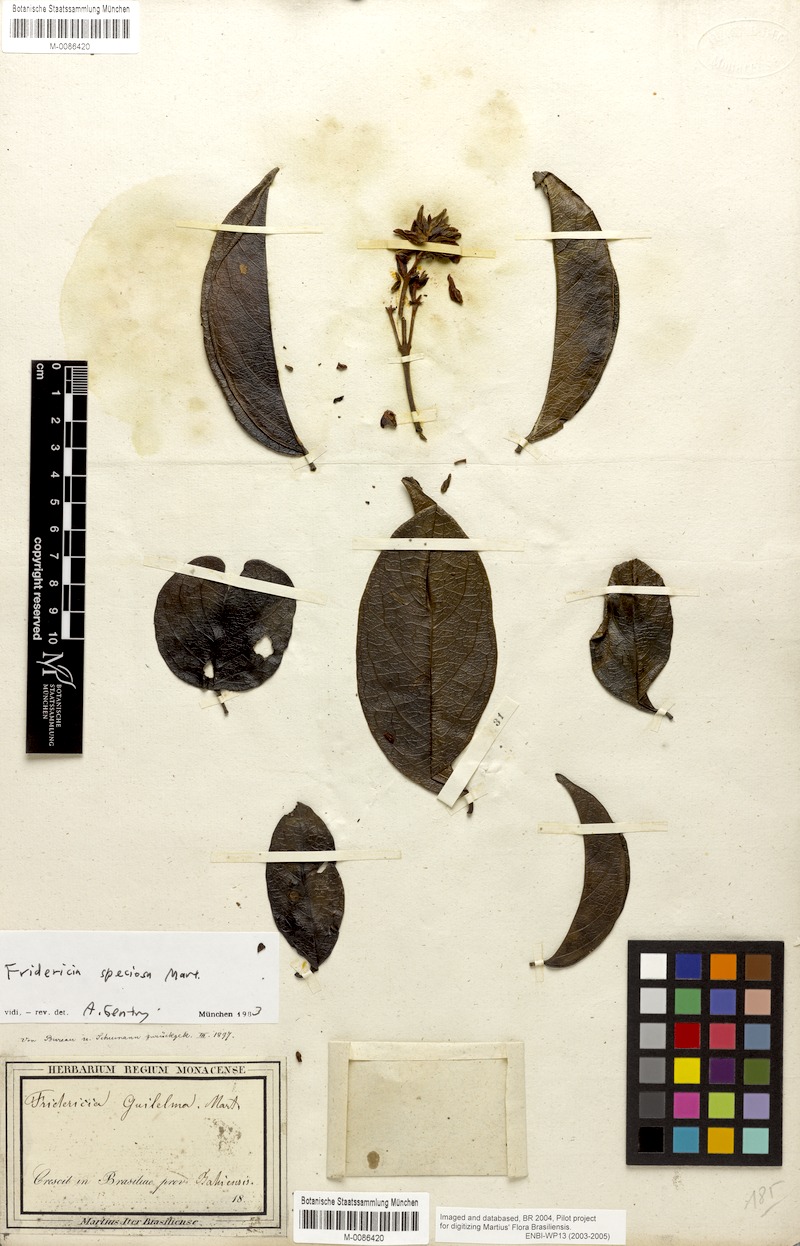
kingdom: Plantae
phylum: Tracheophyta
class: Magnoliopsida
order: Lamiales
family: Bignoniaceae
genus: Fridericia
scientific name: Fridericia speciosa
